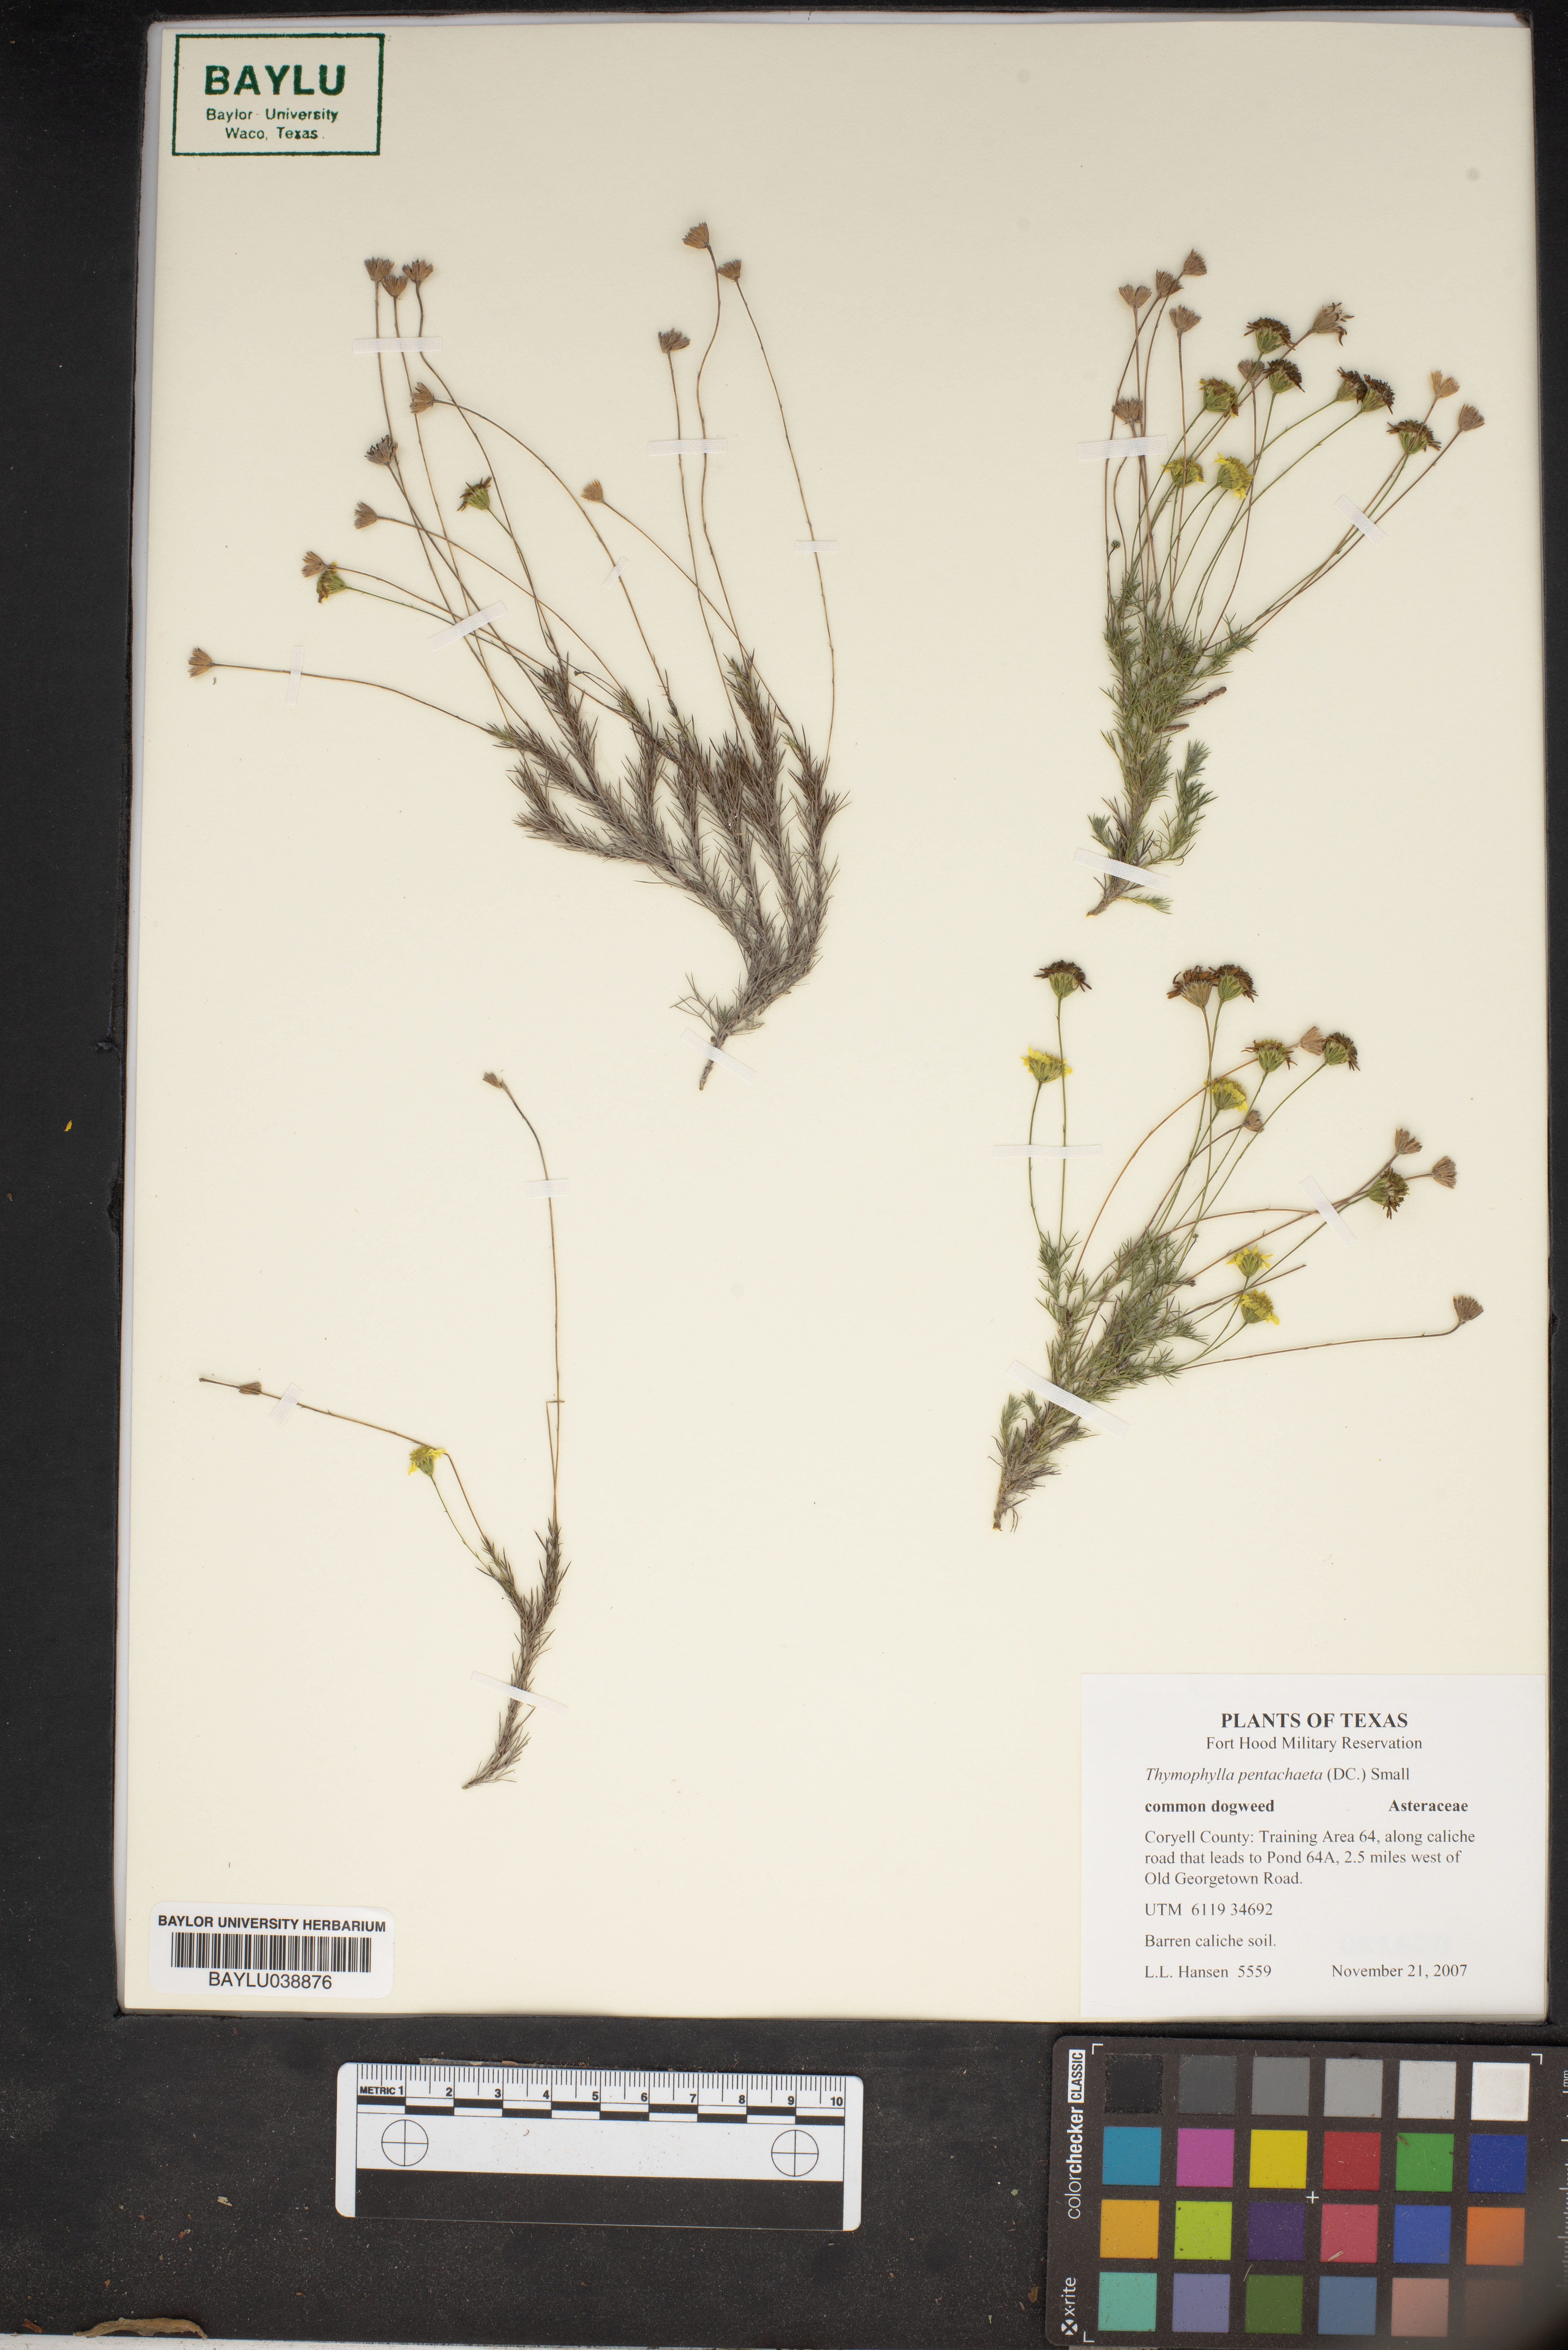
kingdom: Plantae
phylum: Tracheophyta
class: Magnoliopsida
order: Asterales
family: Asteraceae
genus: Thymophylla
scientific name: Thymophylla pentachaeta
